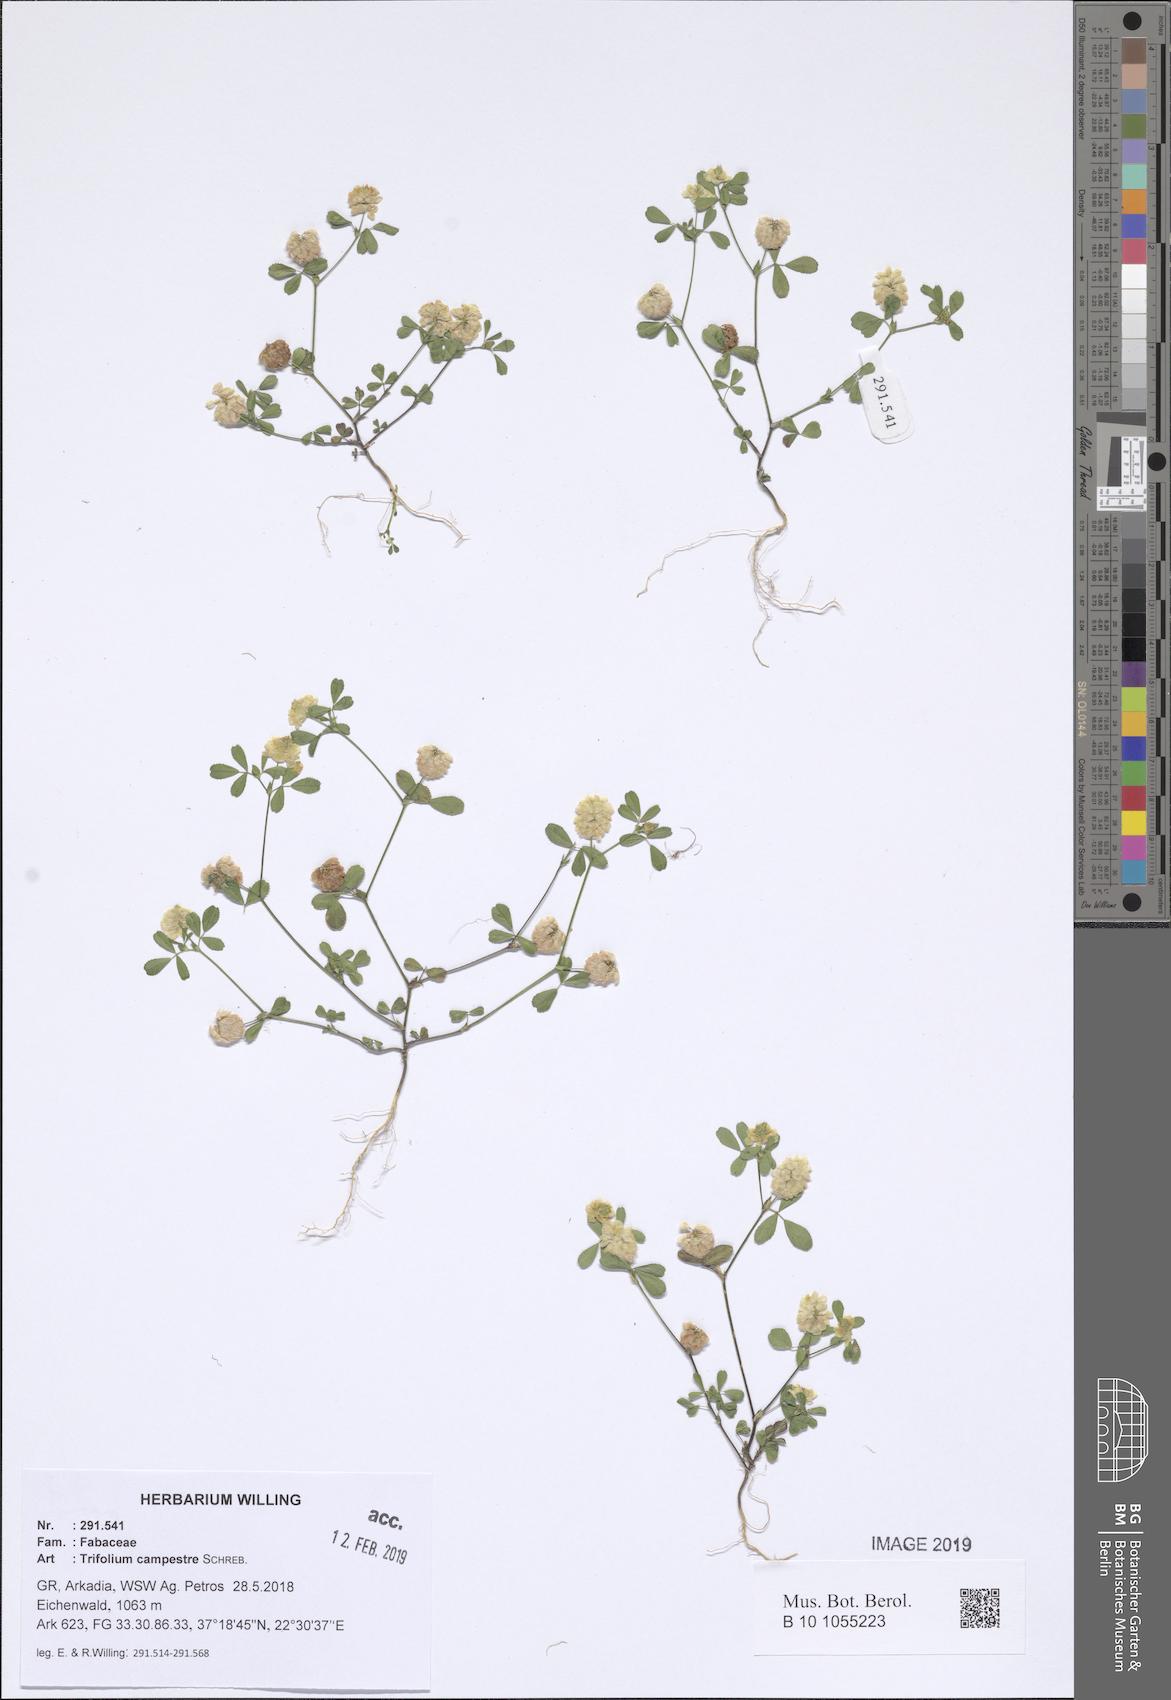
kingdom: Plantae
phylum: Tracheophyta
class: Magnoliopsida
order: Fabales
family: Fabaceae
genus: Trifolium
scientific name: Trifolium campestre
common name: Field clover
